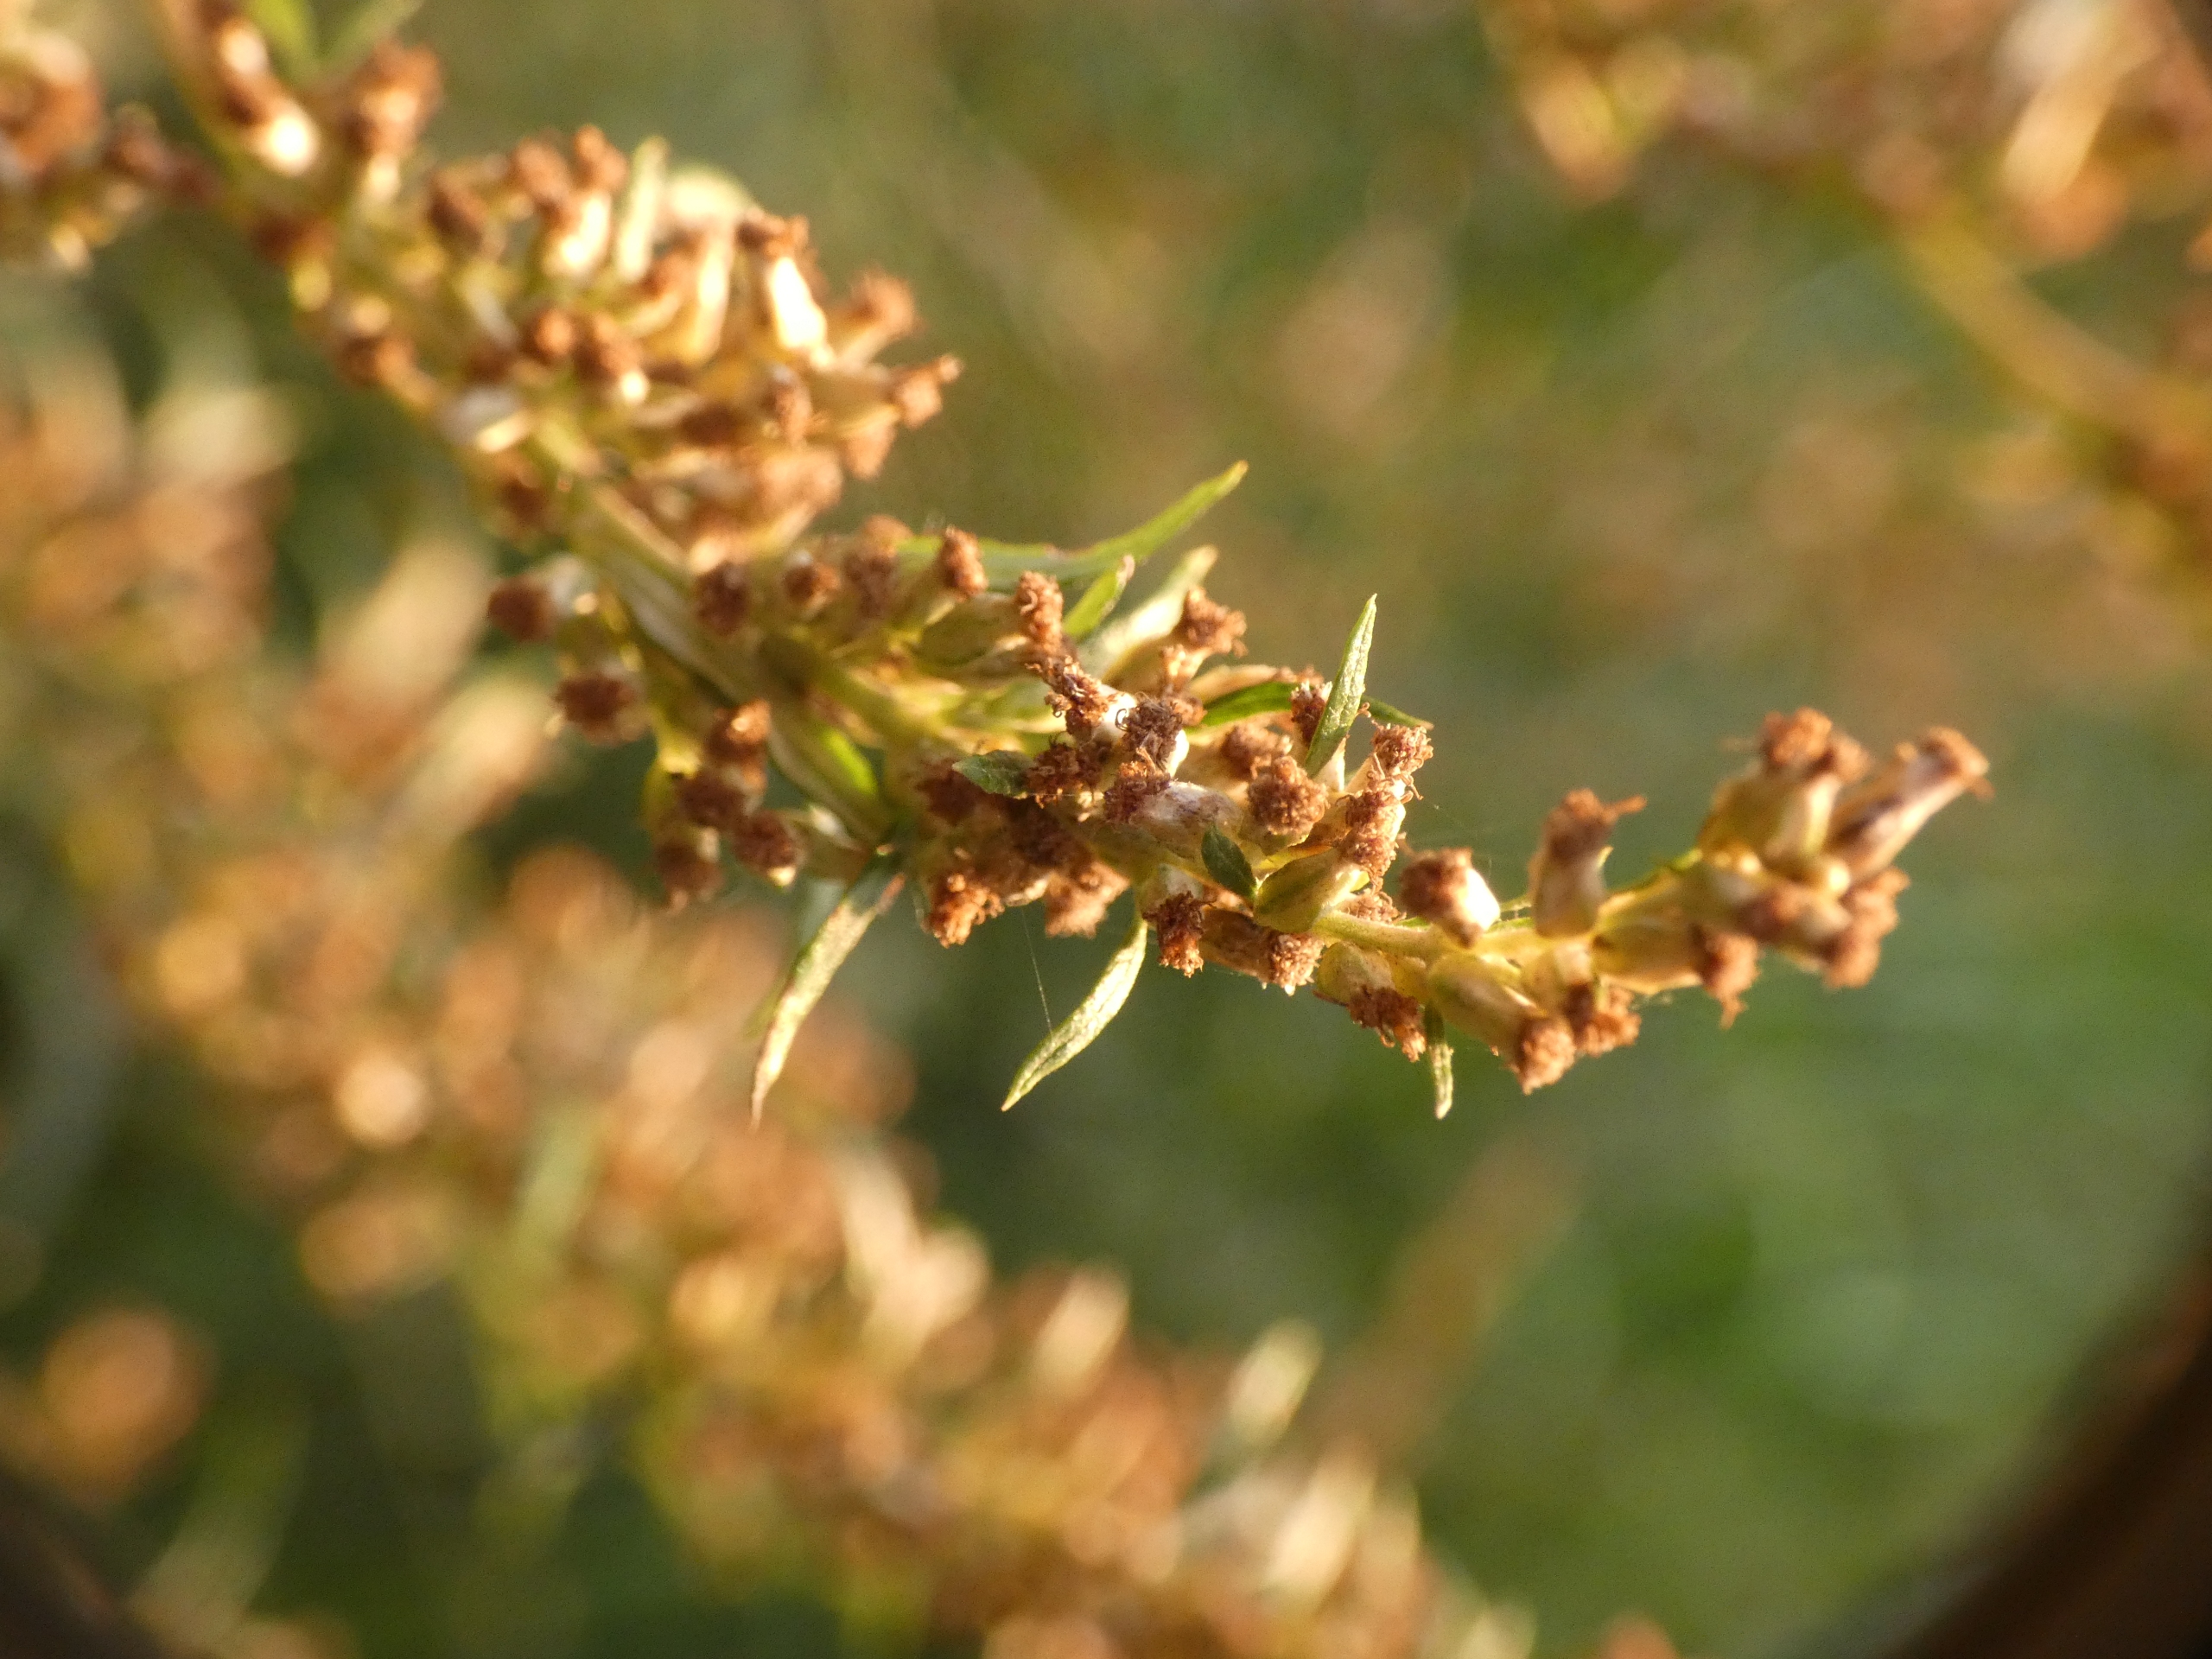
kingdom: Plantae
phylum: Tracheophyta
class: Magnoliopsida
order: Asterales
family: Asteraceae
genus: Artemisia
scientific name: Artemisia vulgaris
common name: Grå-bynke
